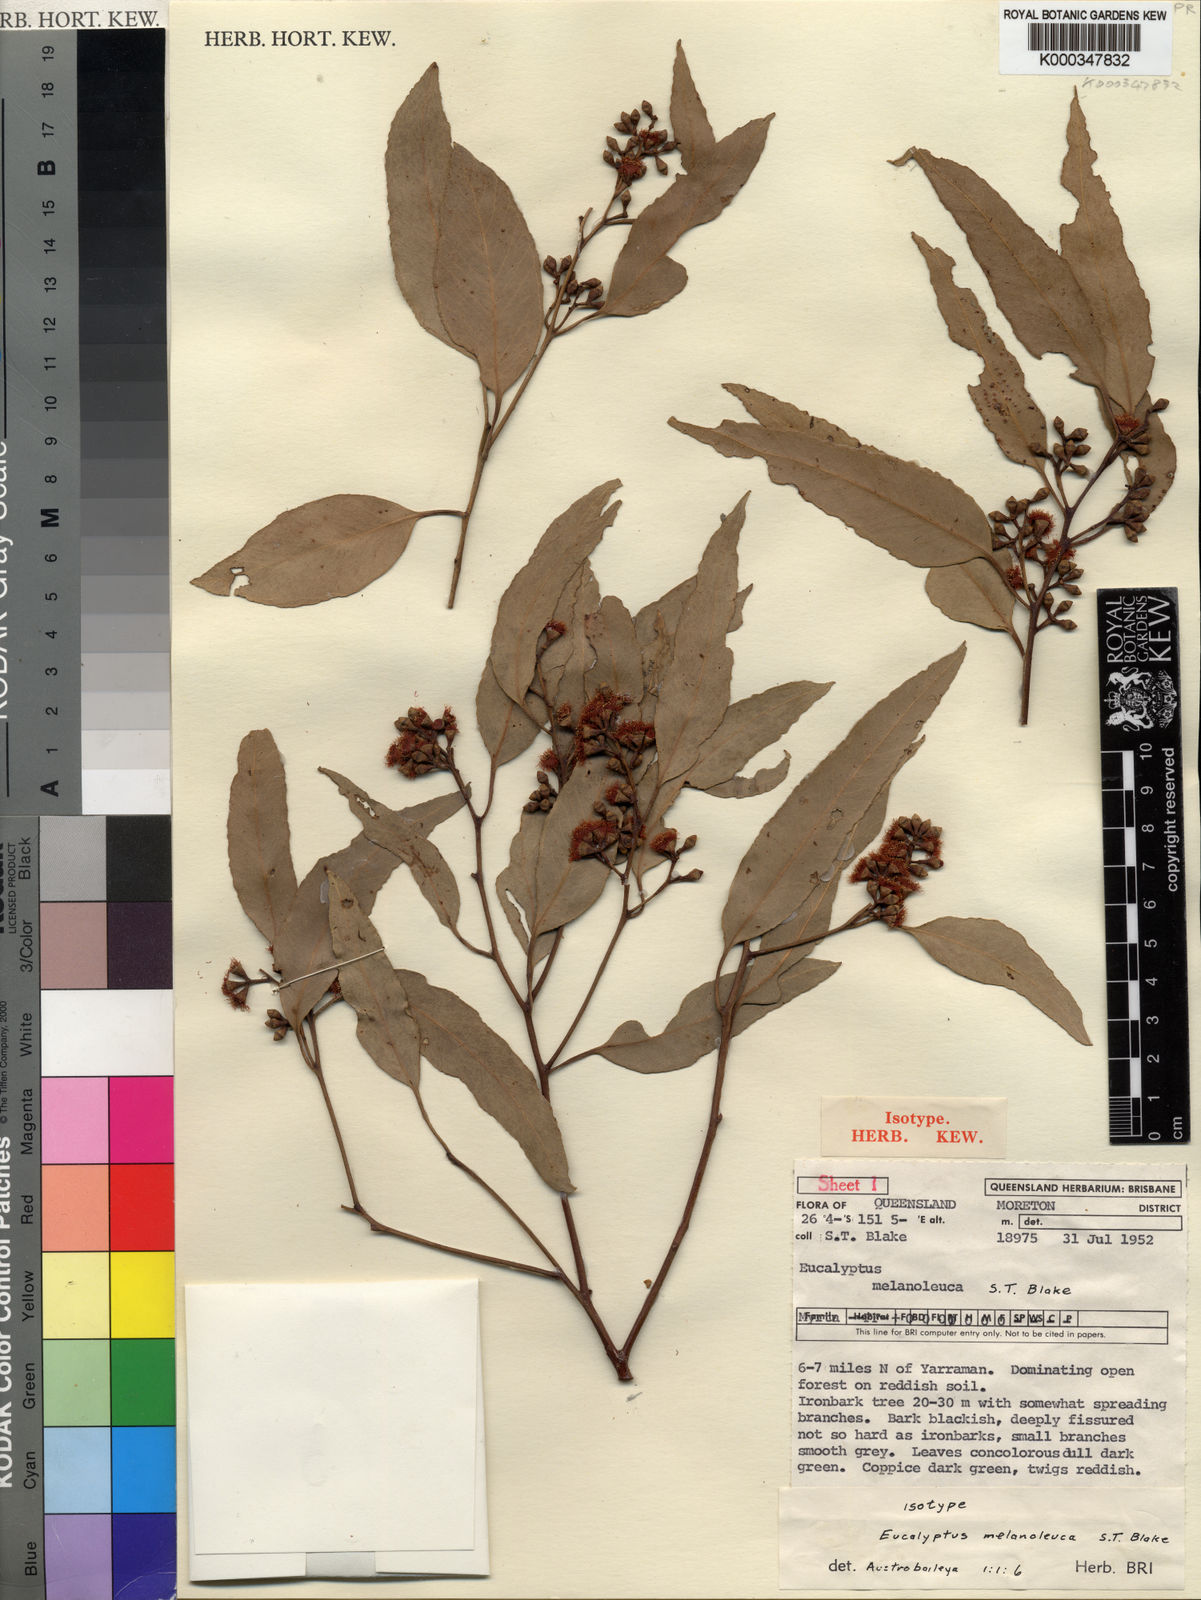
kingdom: Plantae
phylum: Tracheophyta
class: Magnoliopsida
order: Myrtales
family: Myrtaceae
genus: Eucalyptus
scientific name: Eucalyptus melanoleuca
